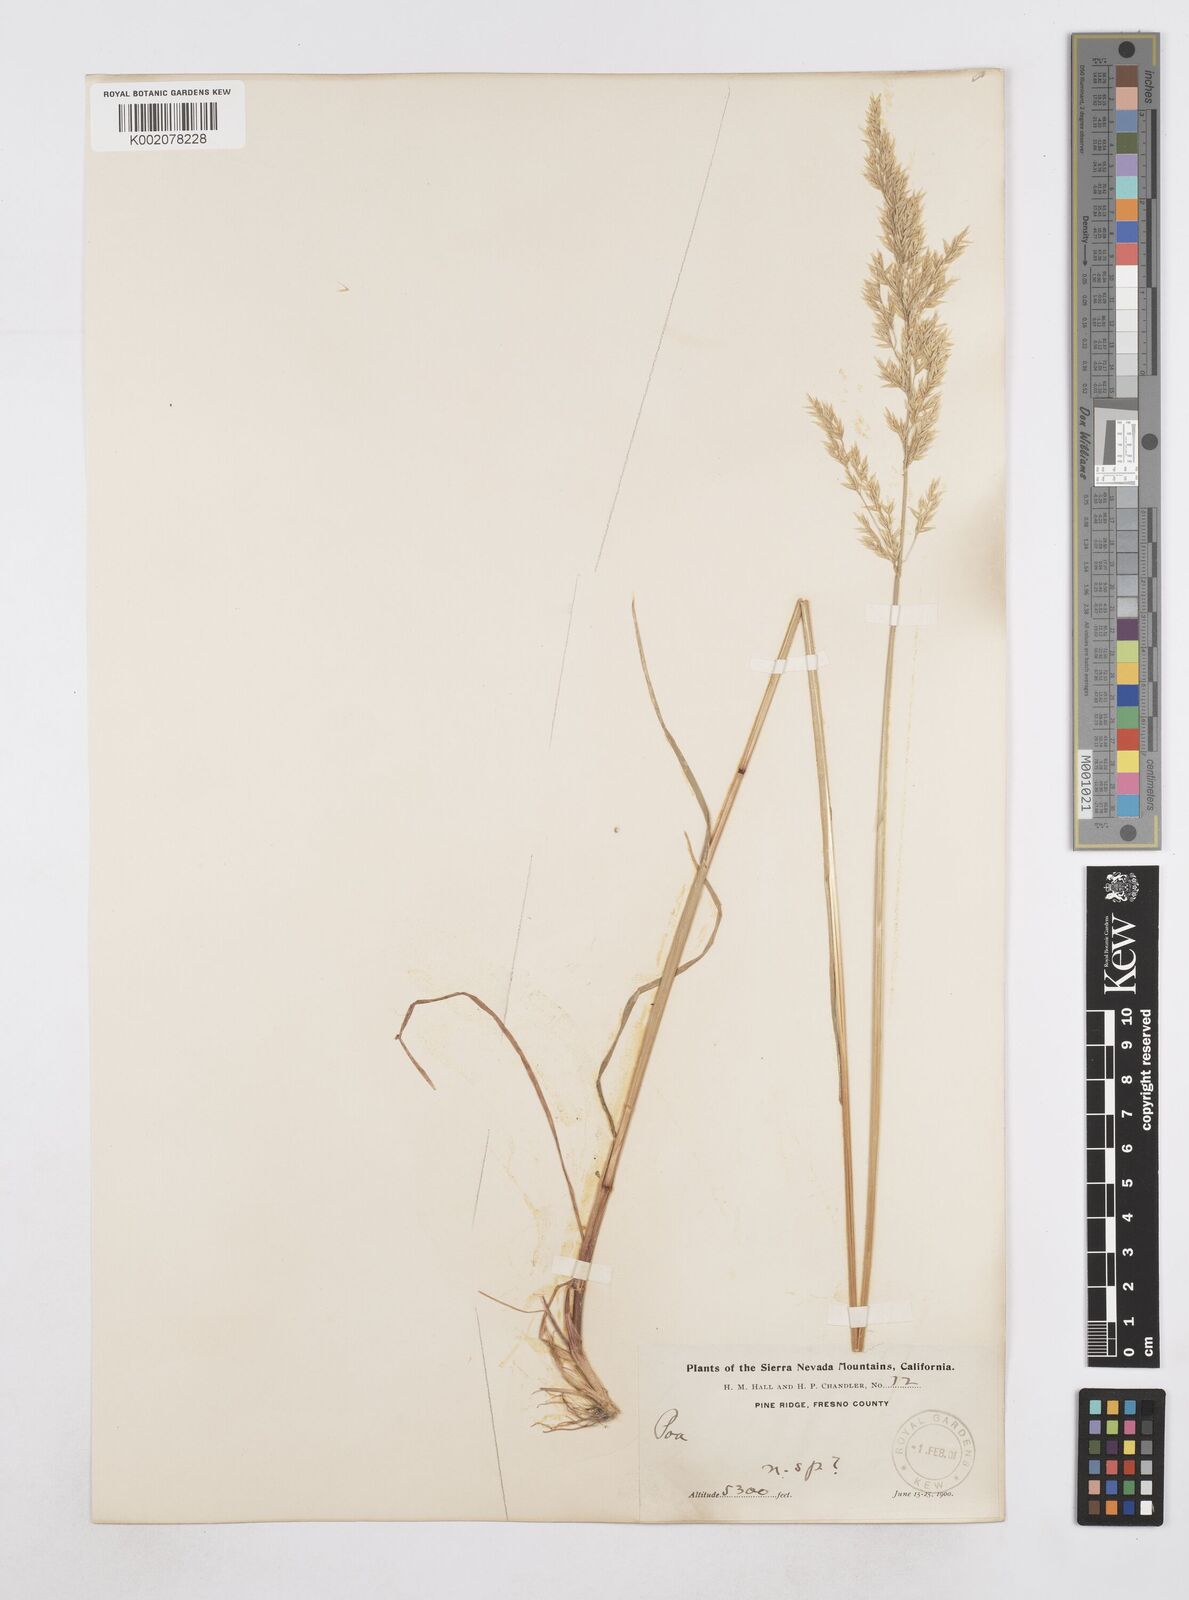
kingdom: Plantae
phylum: Tracheophyta
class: Liliopsida
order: Poales
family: Poaceae
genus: Poa
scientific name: Poa
